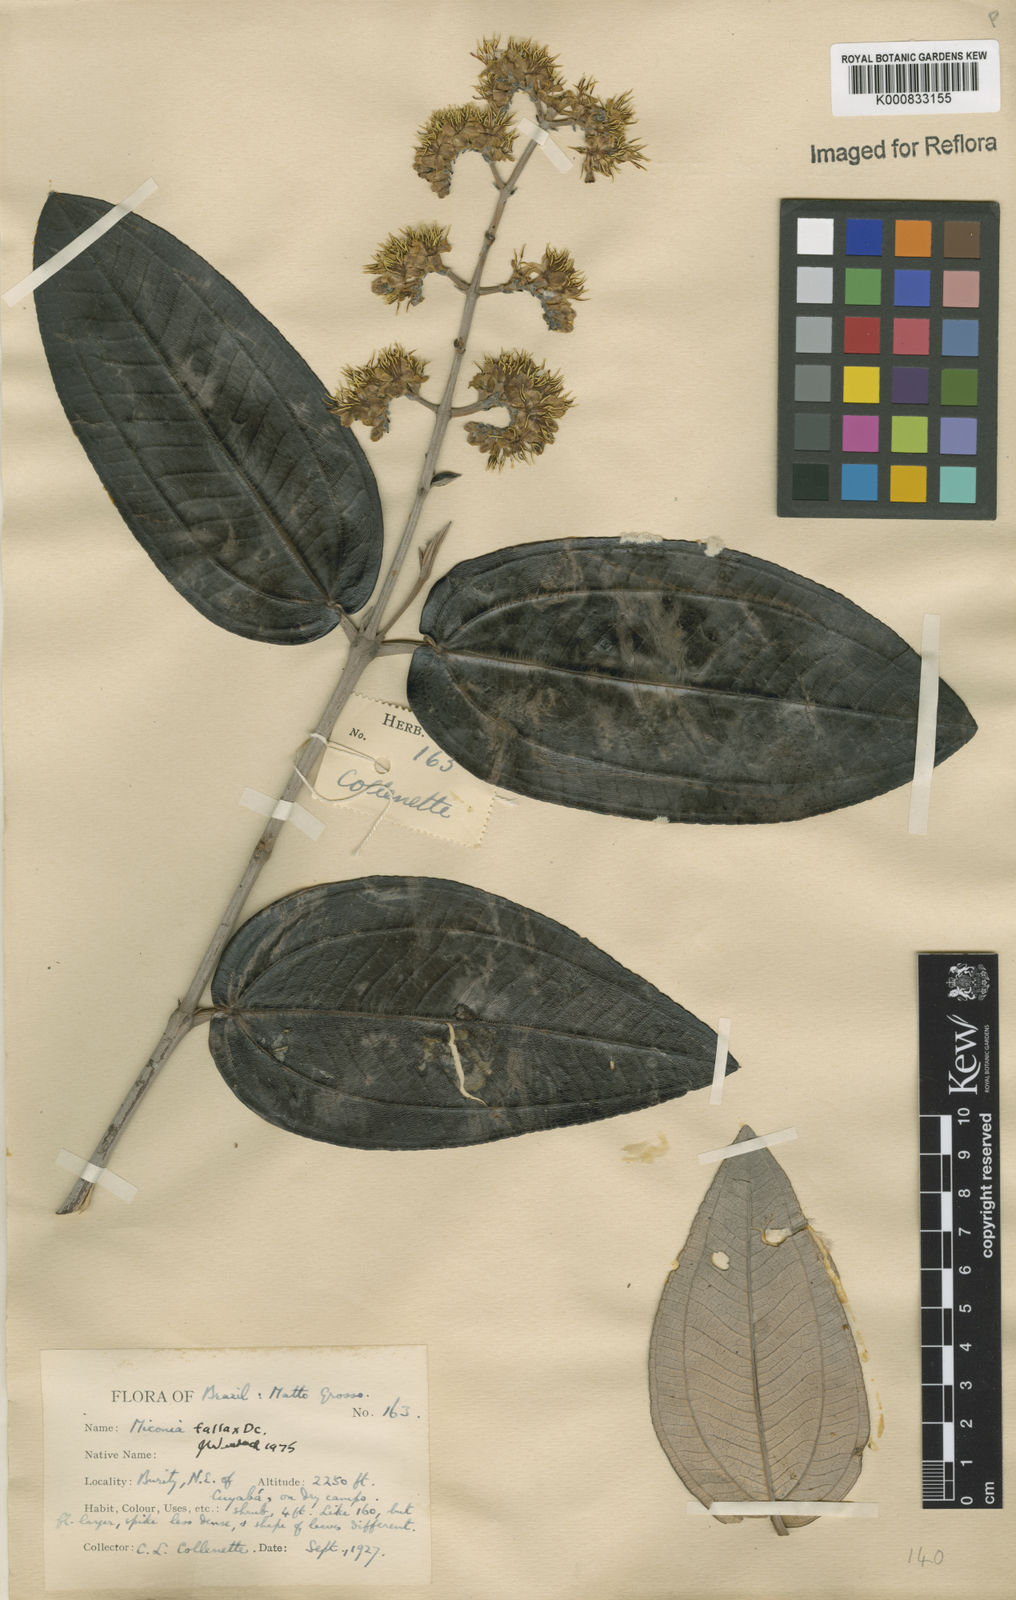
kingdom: Plantae
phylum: Tracheophyta
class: Magnoliopsida
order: Myrtales
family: Melastomataceae
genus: Miconia
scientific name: Miconia fallax
